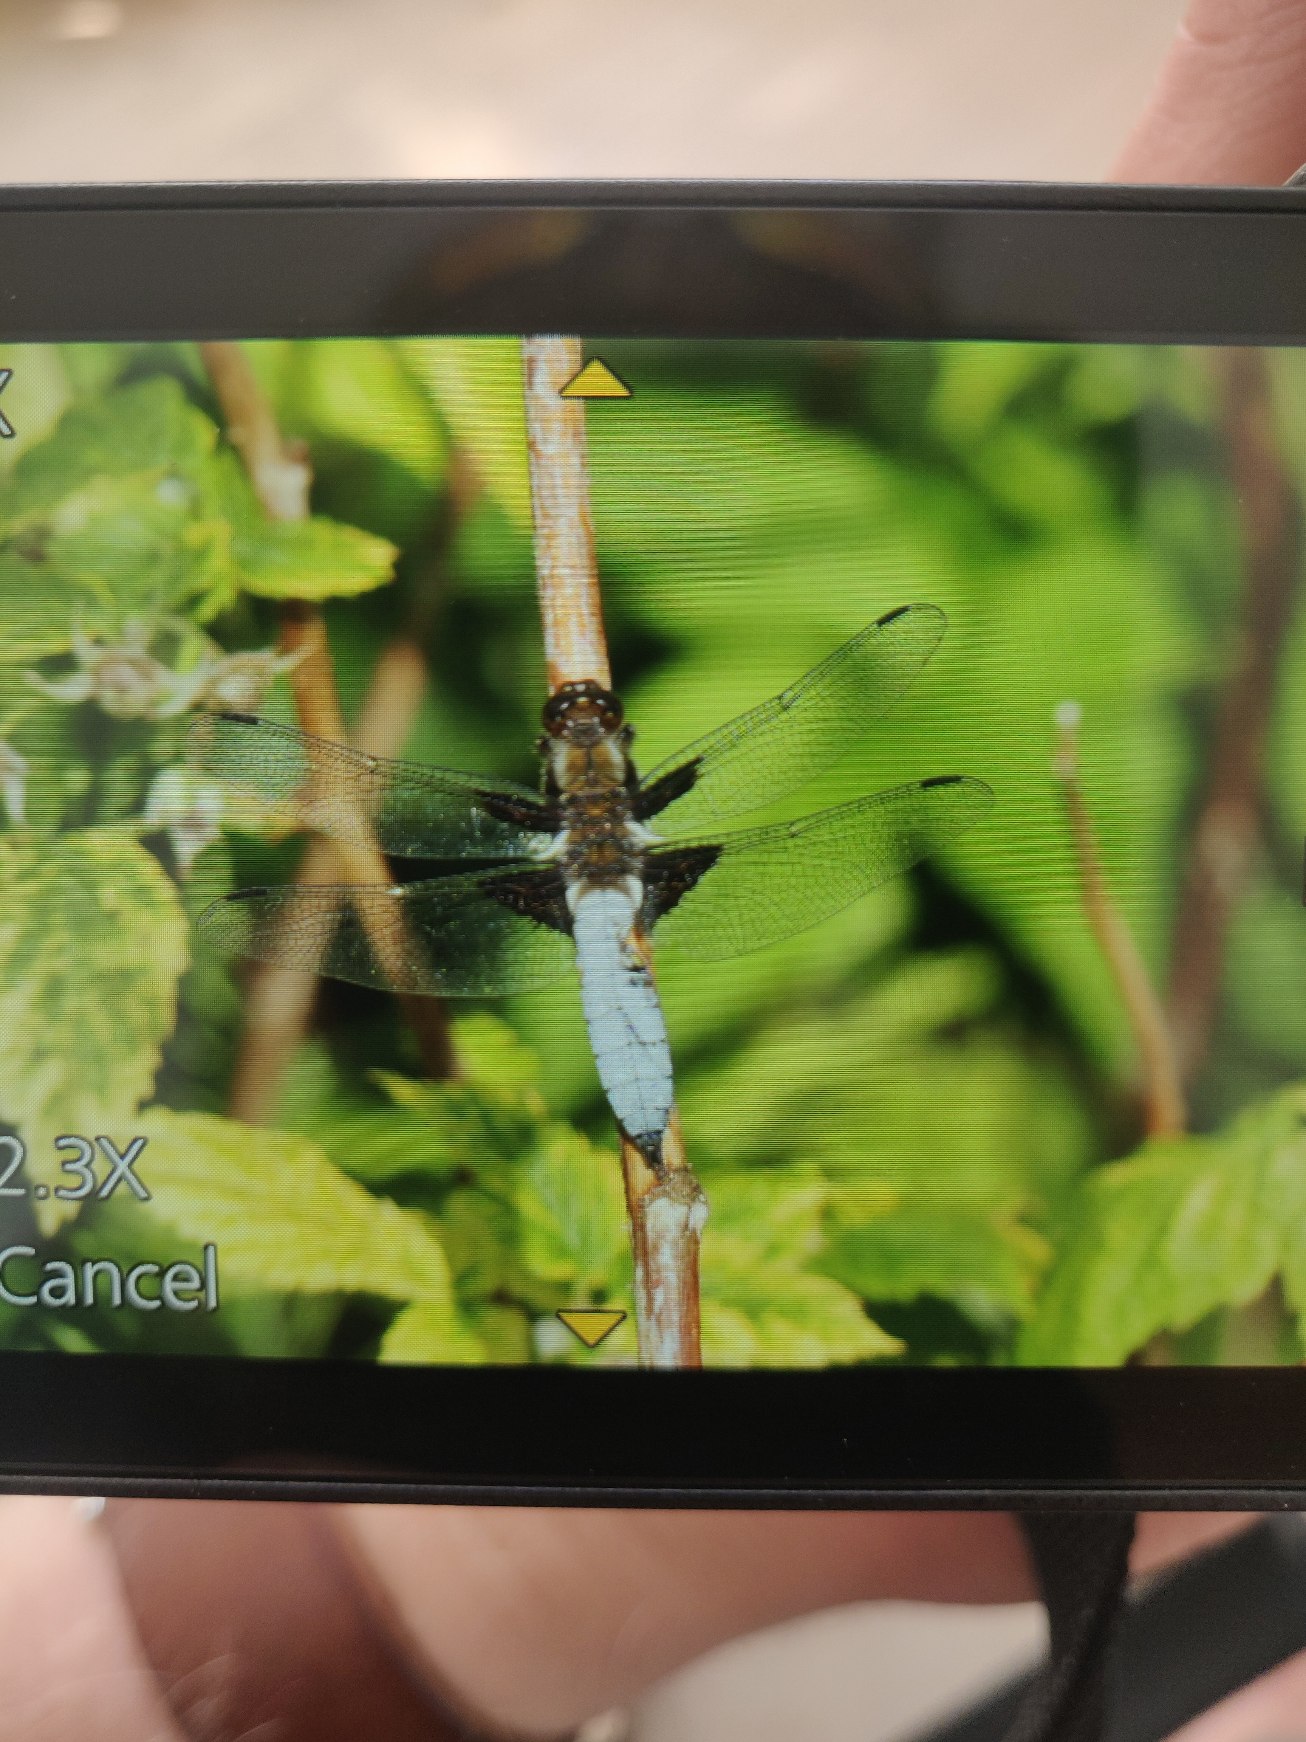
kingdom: Animalia
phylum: Arthropoda
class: Insecta
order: Odonata
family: Libellulidae
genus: Libellula
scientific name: Libellula depressa
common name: Blå libel
